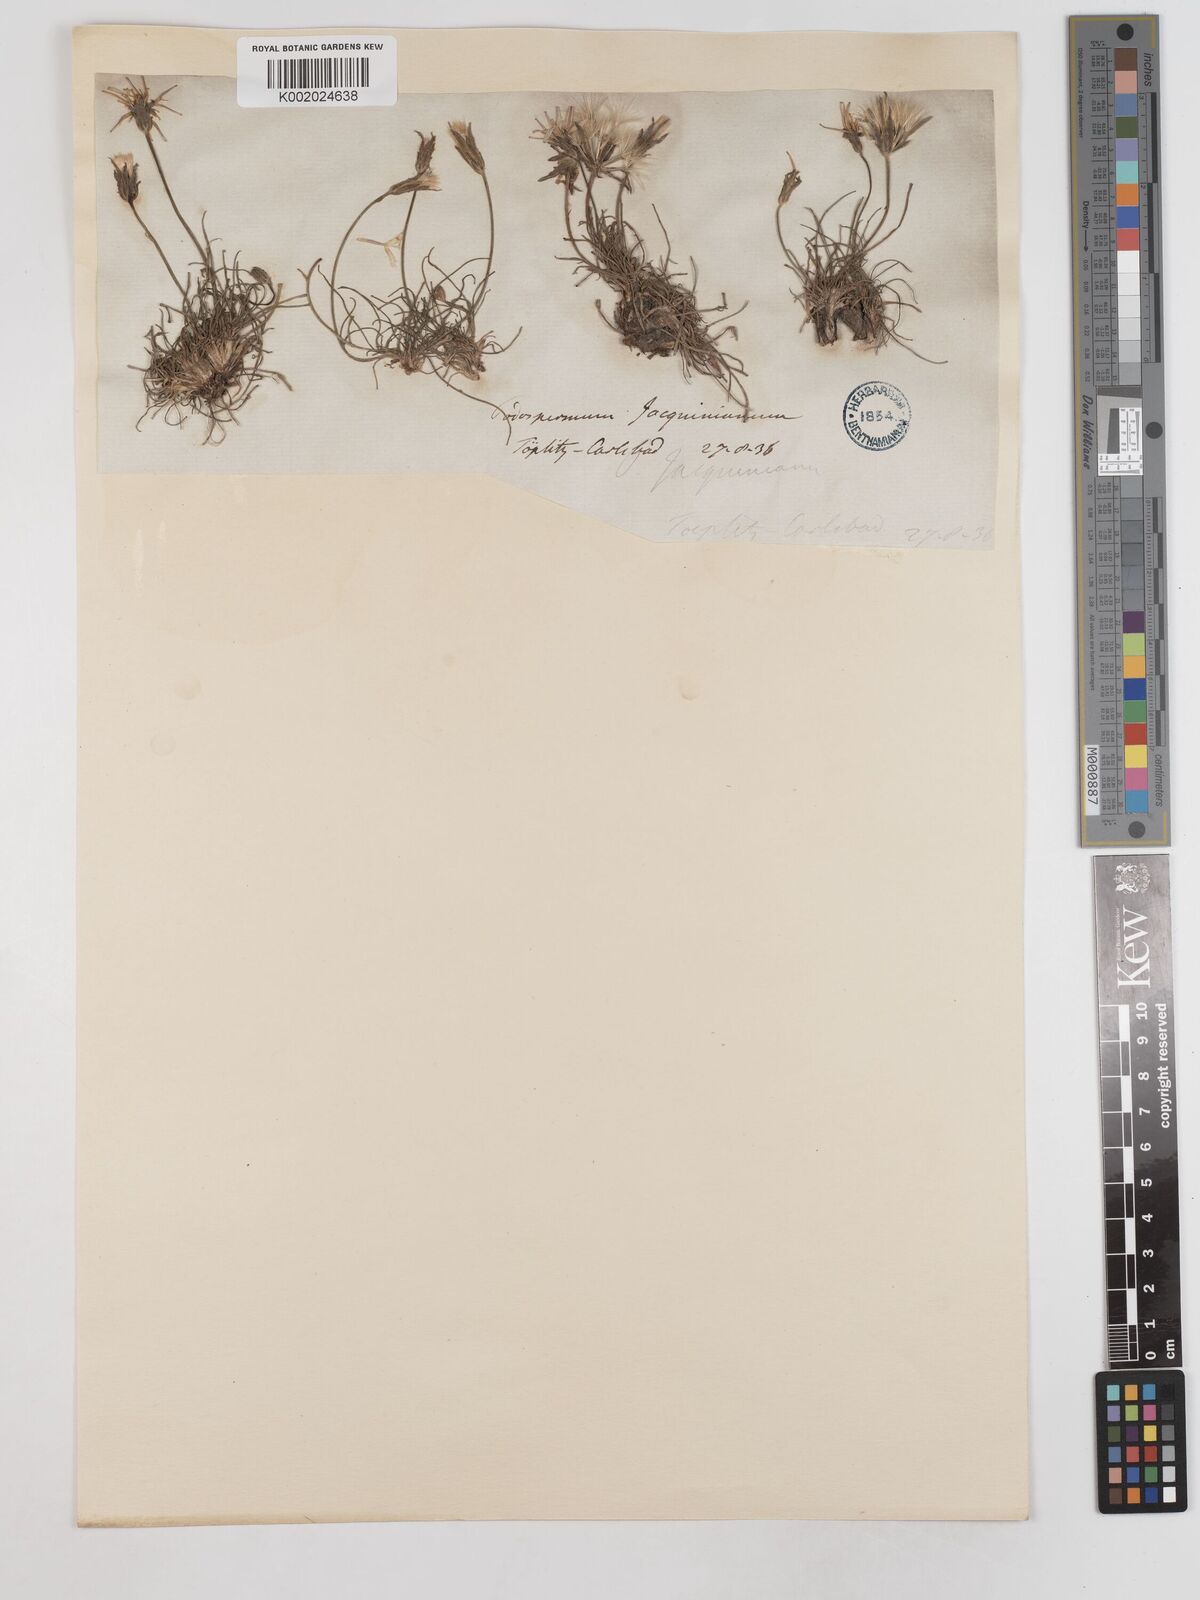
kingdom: Plantae
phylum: Tracheophyta
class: Magnoliopsida
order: Asterales
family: Asteraceae
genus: Scorzonera
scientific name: Scorzonera cana
